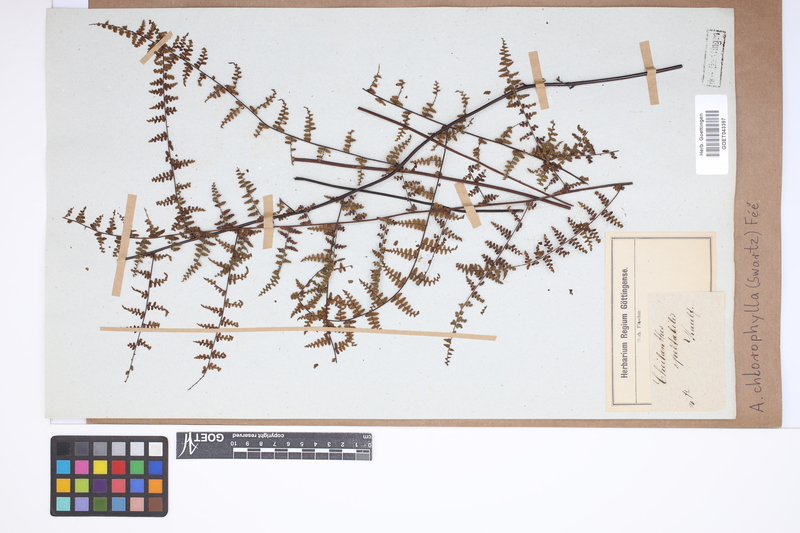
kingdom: Plantae
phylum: Tracheophyta
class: Polypodiopsida
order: Polypodiales
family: Pteridaceae
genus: Adiantopsis
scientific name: Adiantopsis chlorophylla
